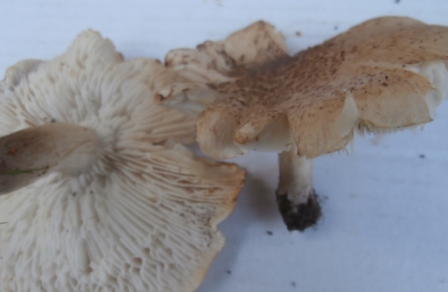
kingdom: Fungi
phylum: Basidiomycota
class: Agaricomycetes
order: Agaricales
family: Tricholomataceae
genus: Tricholoma
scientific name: Tricholoma scalpturatum
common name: gulplettet ridderhat
